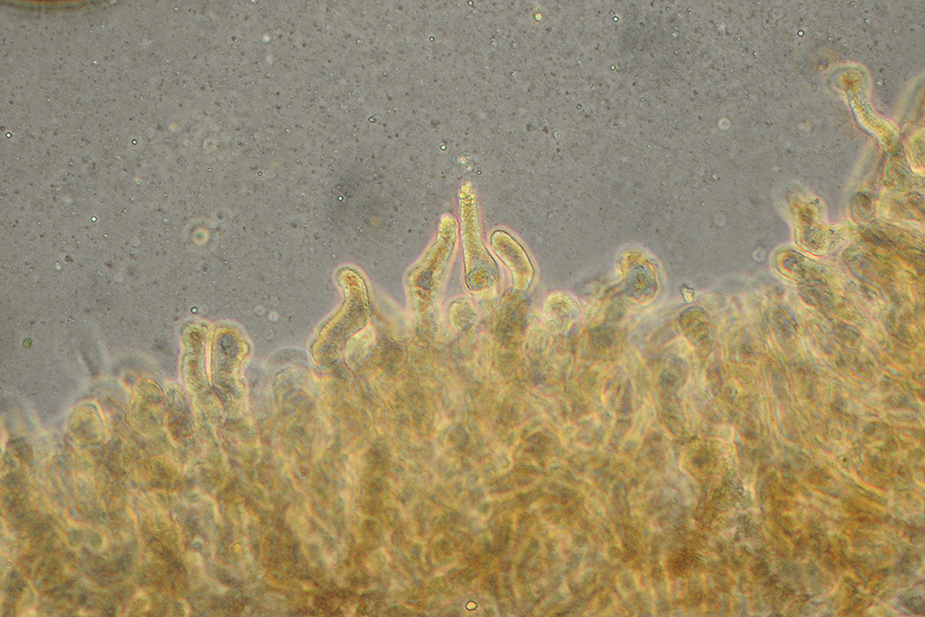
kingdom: Fungi
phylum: Basidiomycota
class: Agaricomycetes
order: Agaricales
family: Psathyrellaceae
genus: Parasola
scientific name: Parasola
